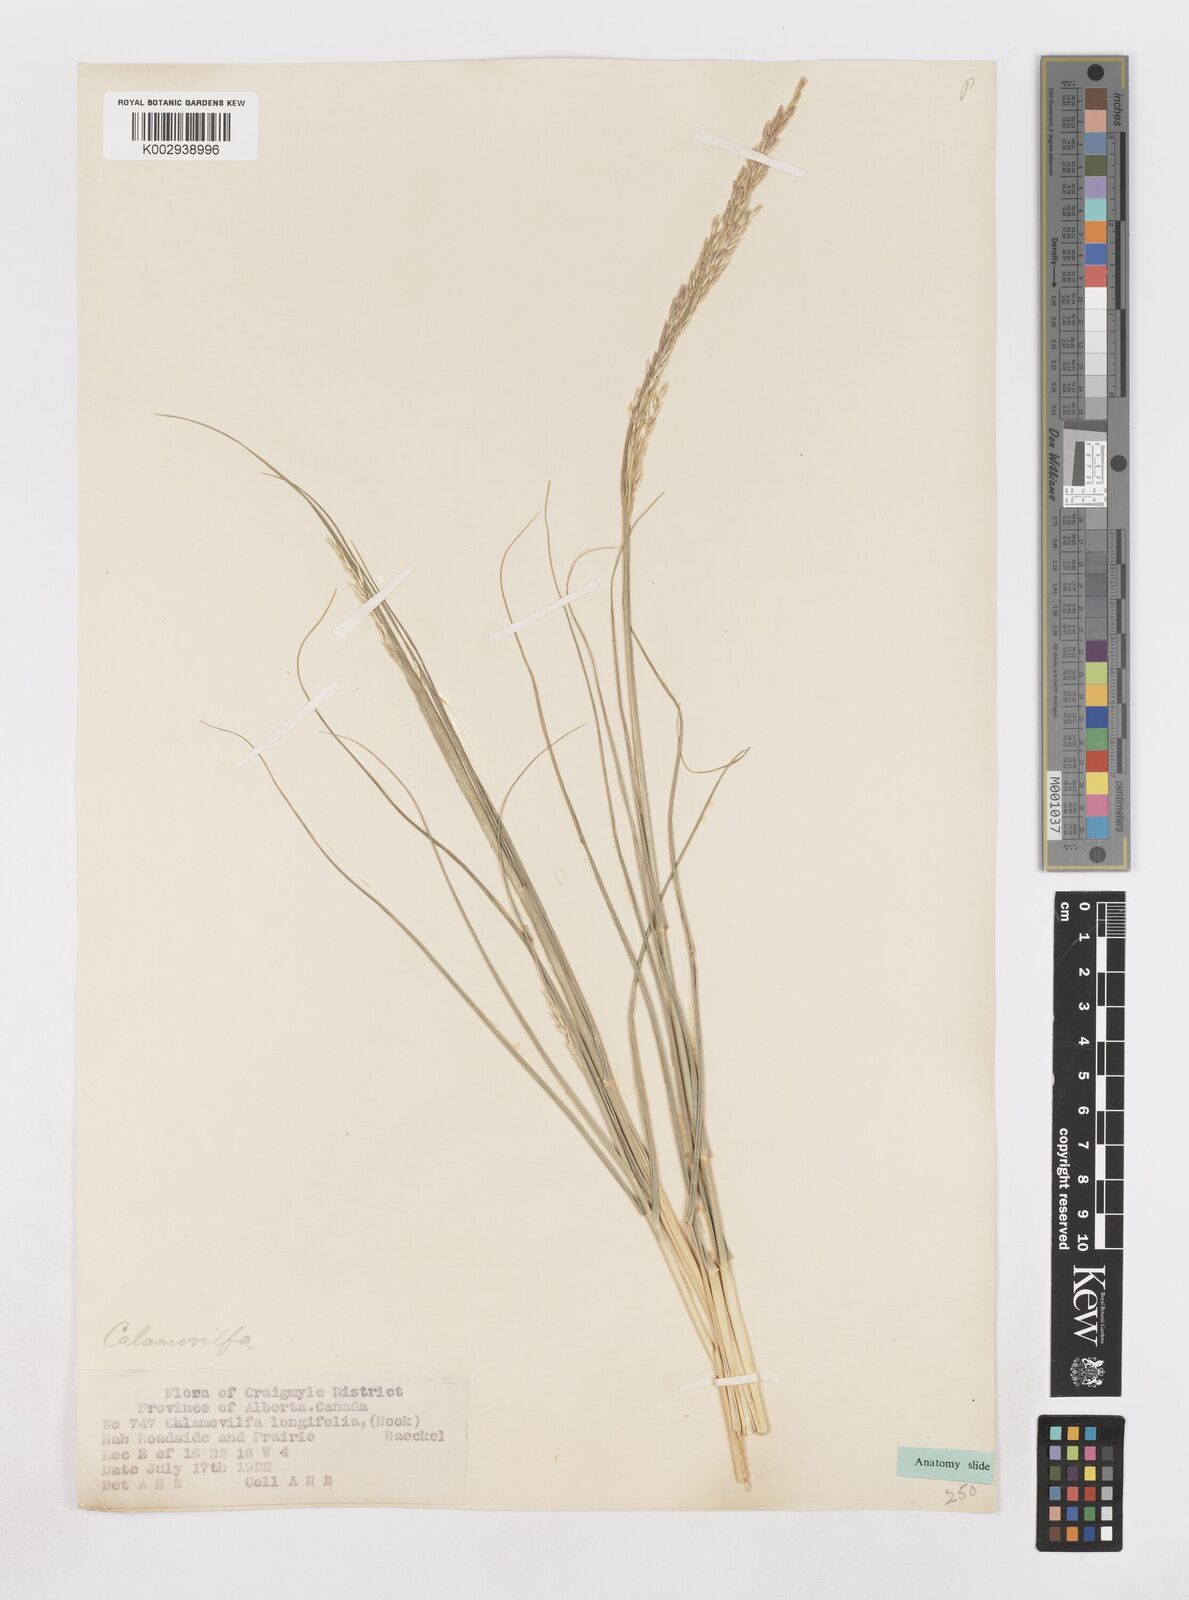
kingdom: Plantae
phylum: Tracheophyta
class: Liliopsida
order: Poales
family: Poaceae
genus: Sporobolus
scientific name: Sporobolus rigidus
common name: Prairie sandreed
